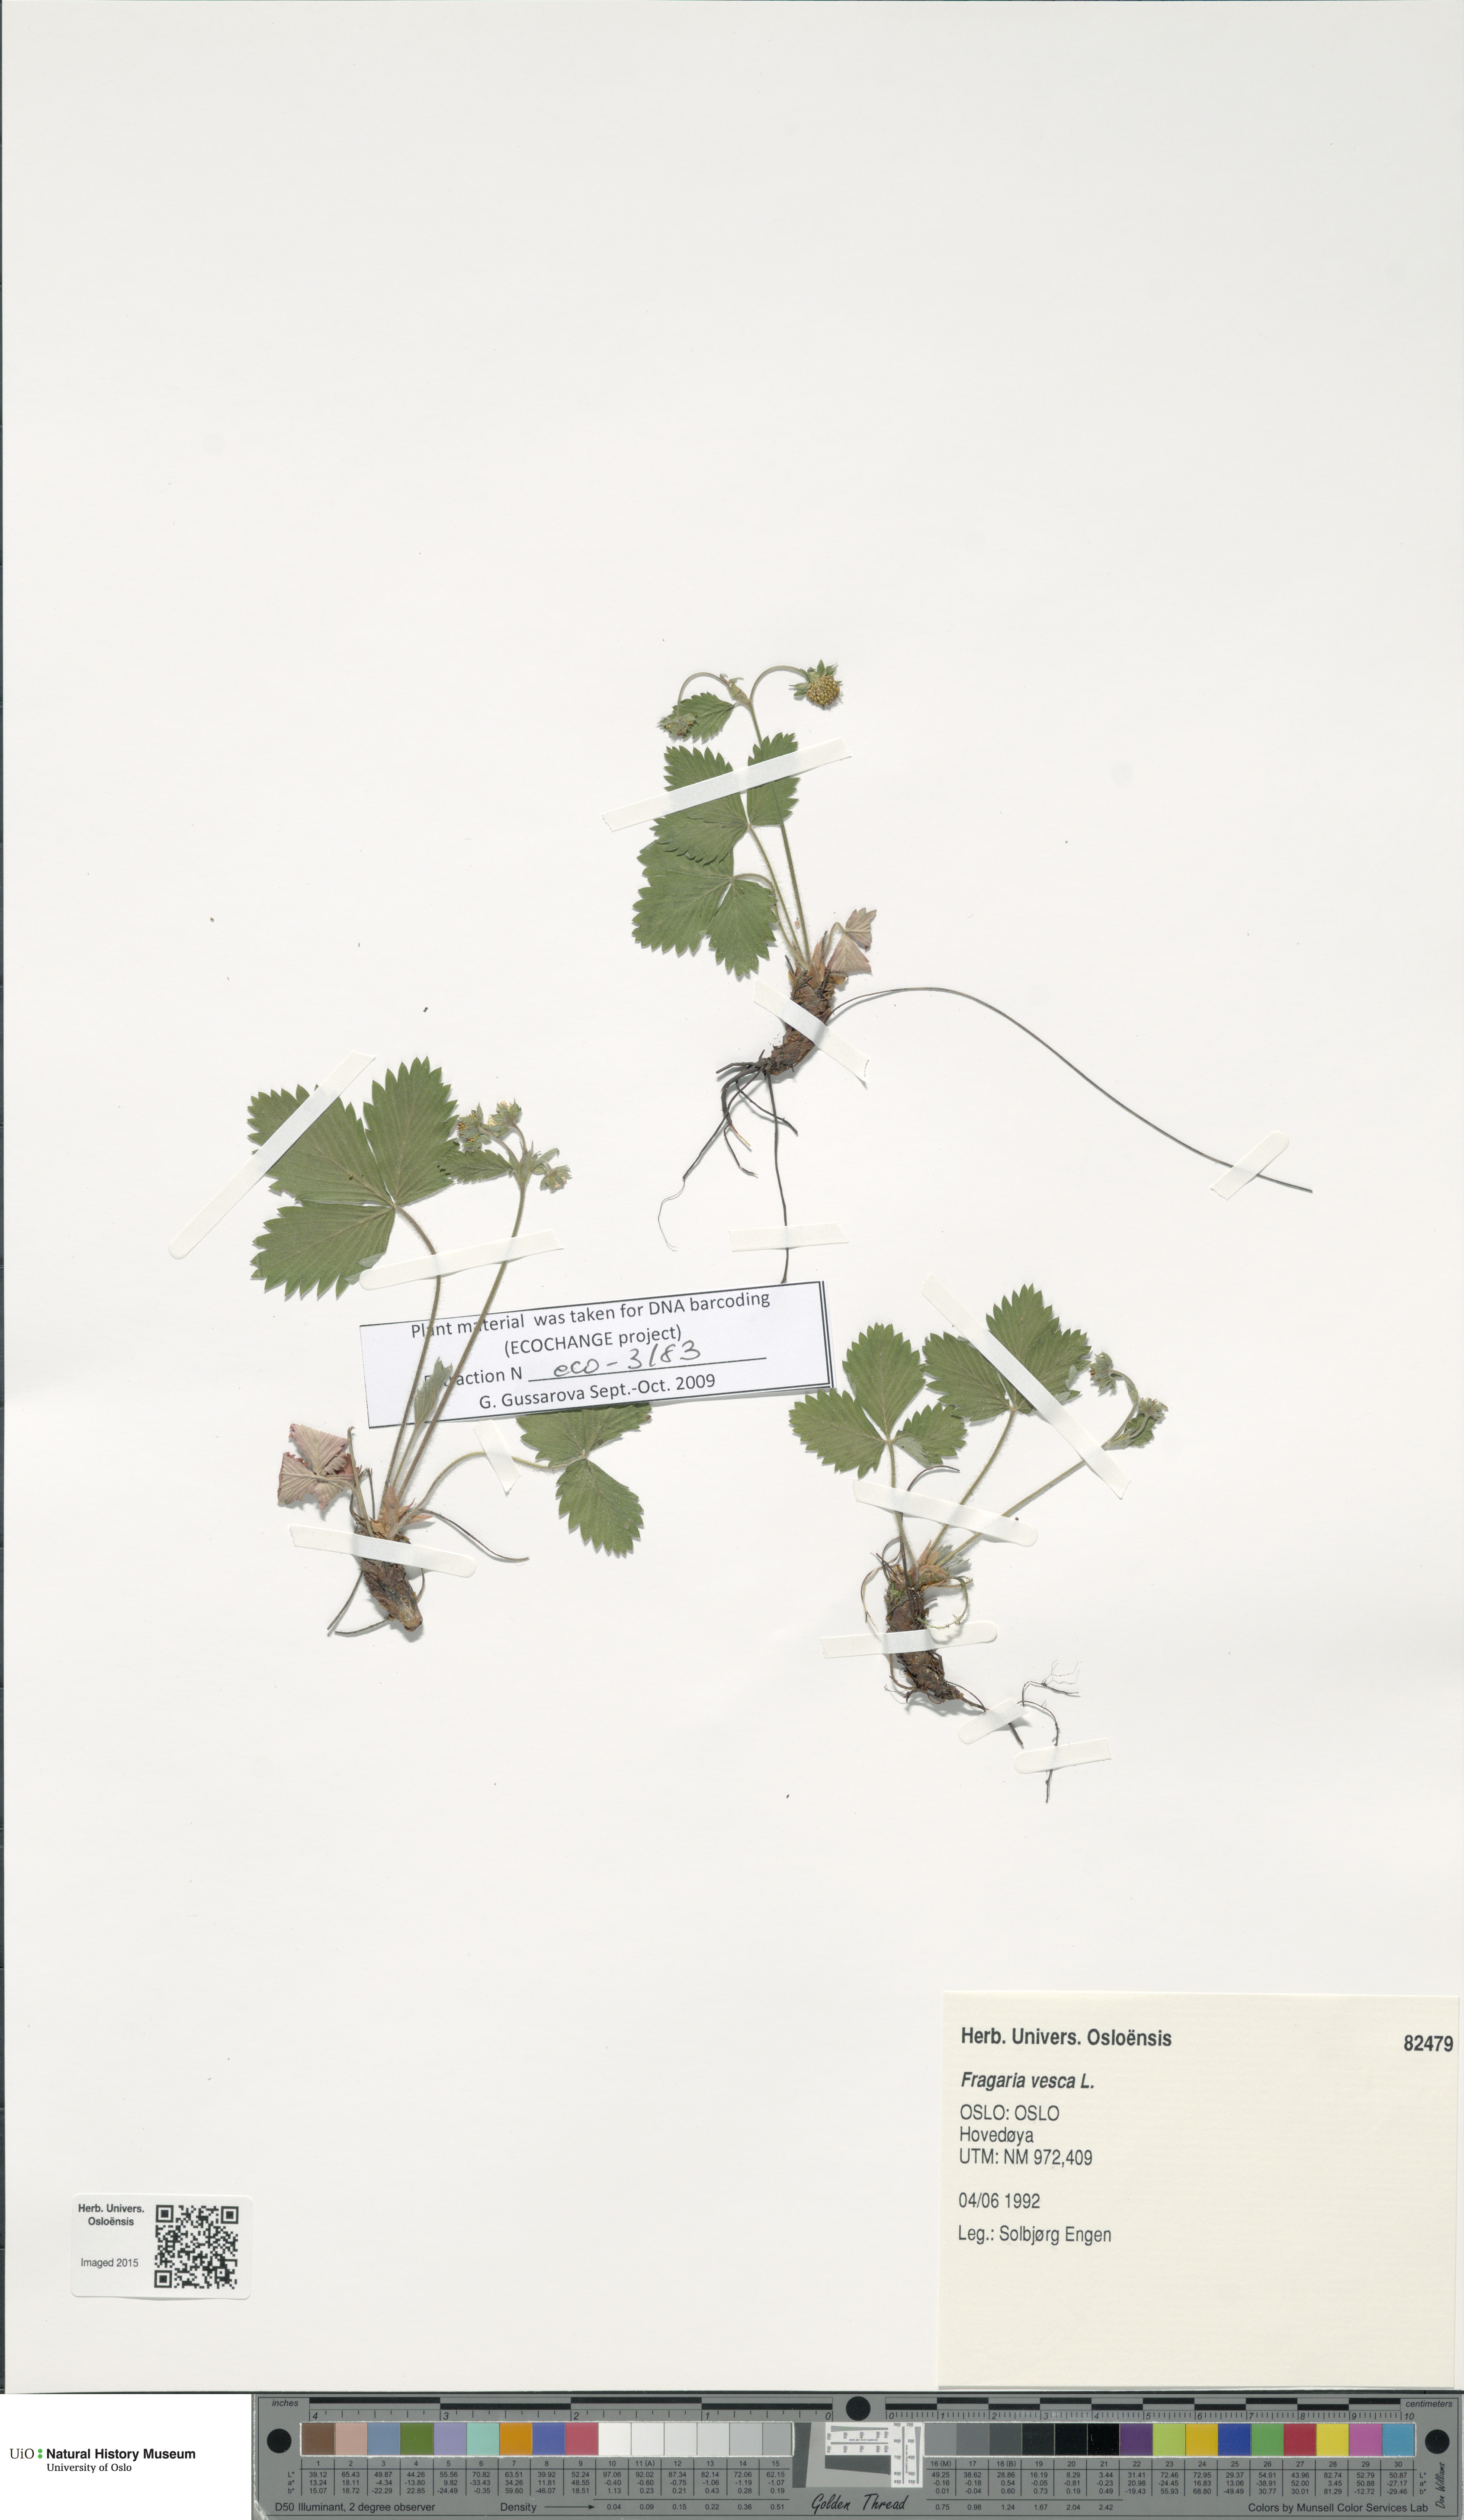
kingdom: Plantae
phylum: Tracheophyta
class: Magnoliopsida
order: Rosales
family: Rosaceae
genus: Fragaria
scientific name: Fragaria vesca
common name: Wild strawberry
